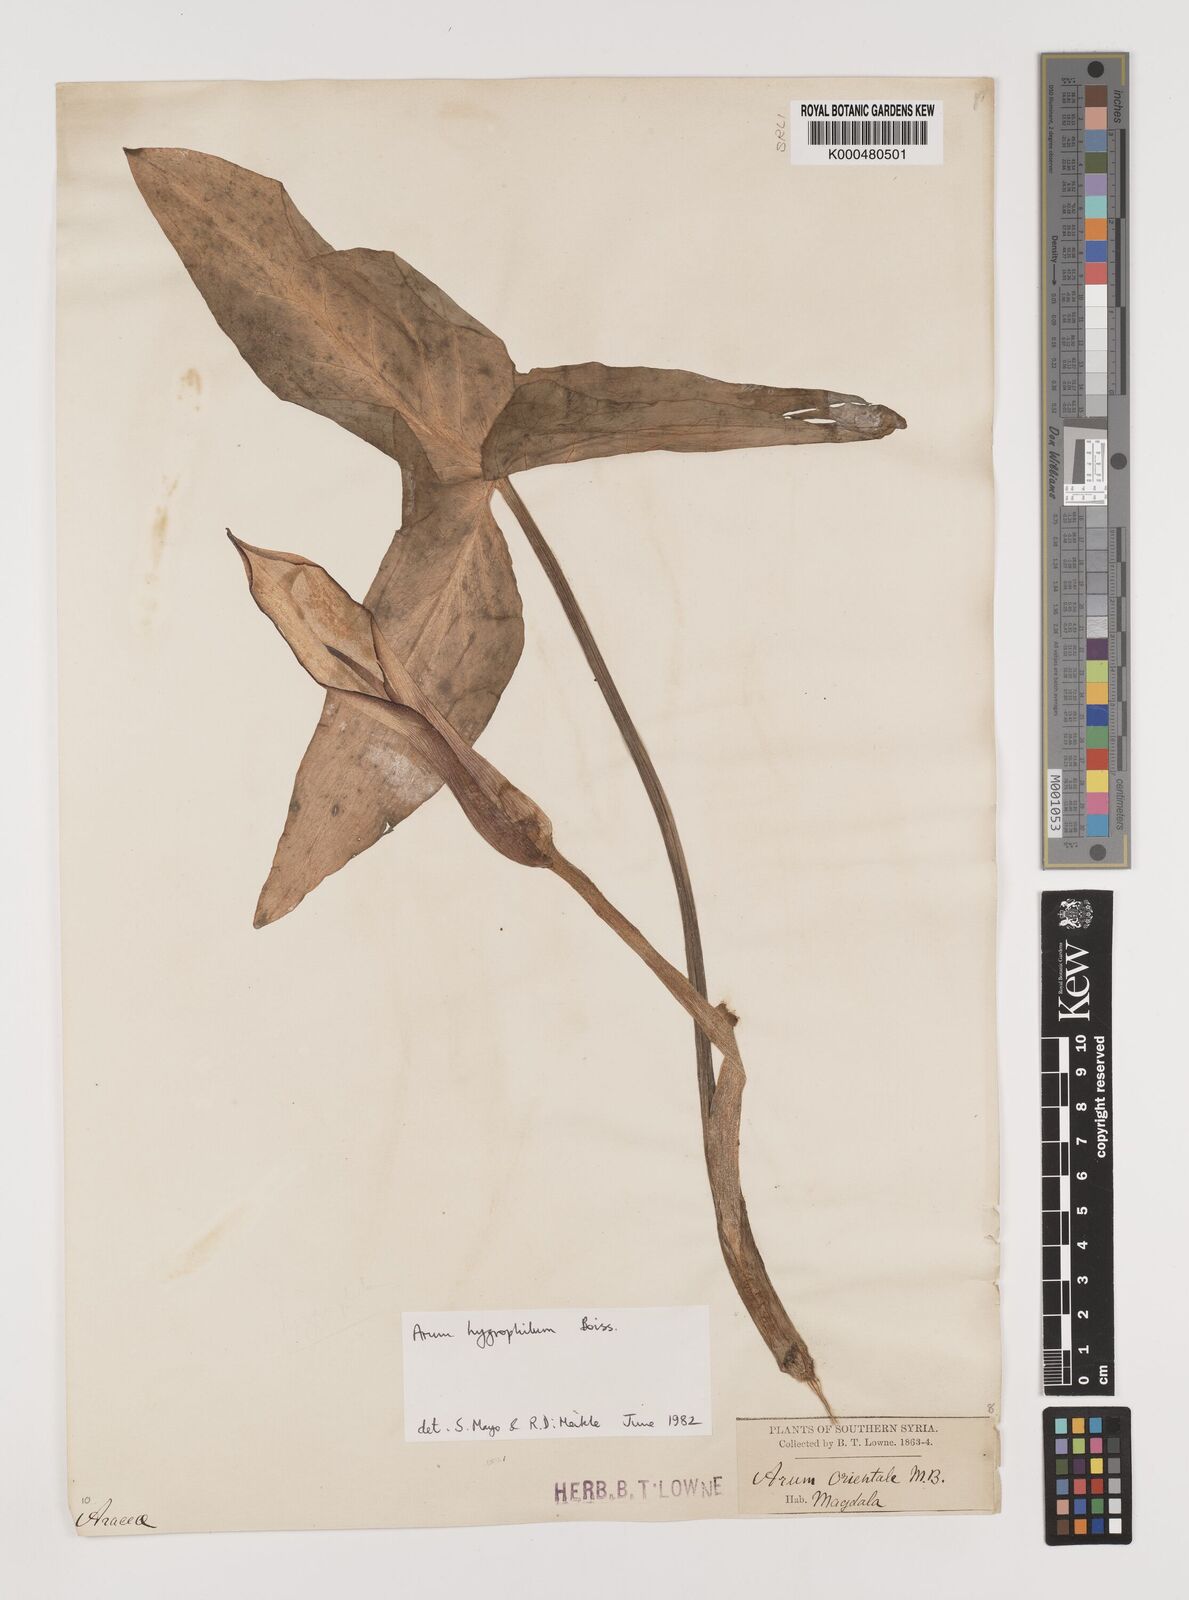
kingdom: Plantae
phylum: Tracheophyta
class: Liliopsida
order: Alismatales
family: Araceae
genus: Arum
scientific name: Arum hygrophilum
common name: Water arum
